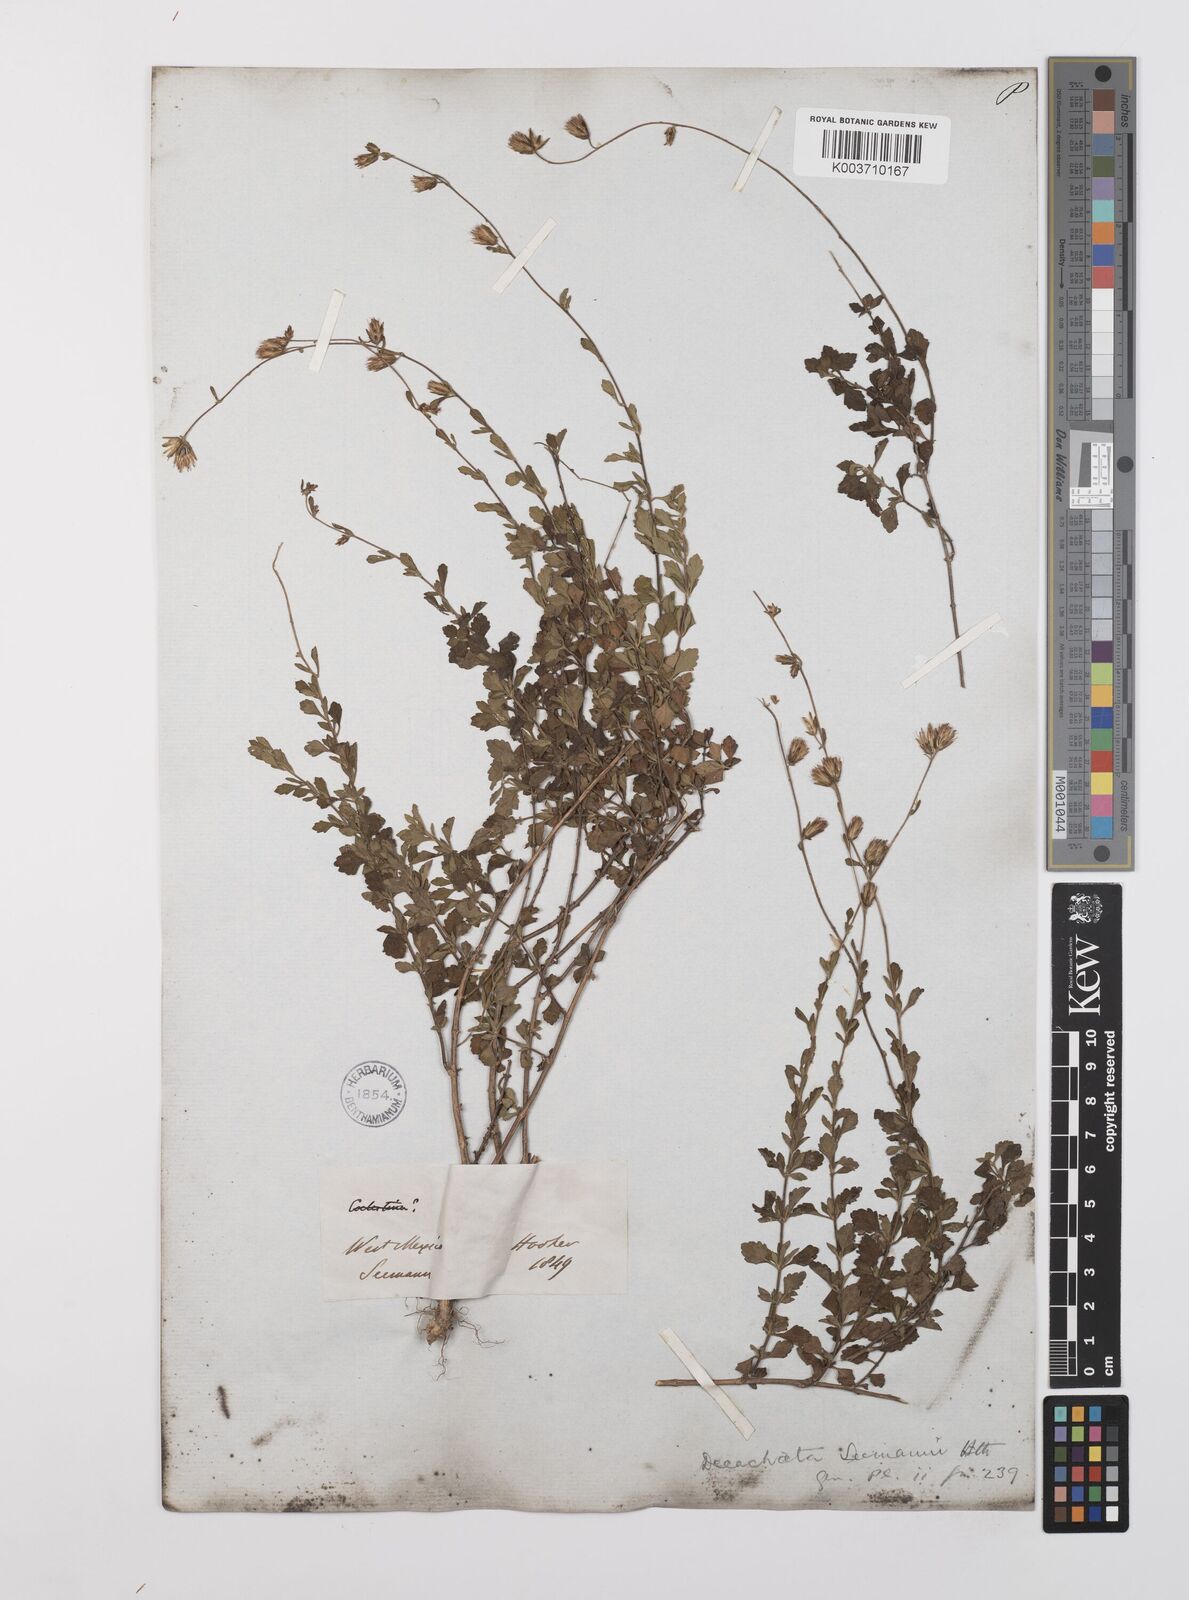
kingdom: Plantae
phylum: Tracheophyta
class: Magnoliopsida
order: Asterales
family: Asteraceae
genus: Ageratella
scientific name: Ageratella microphylla
